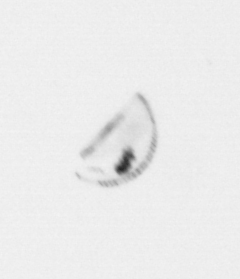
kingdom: Chromista
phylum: Ochrophyta
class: Bacillariophyceae
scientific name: Bacillariophyceae
